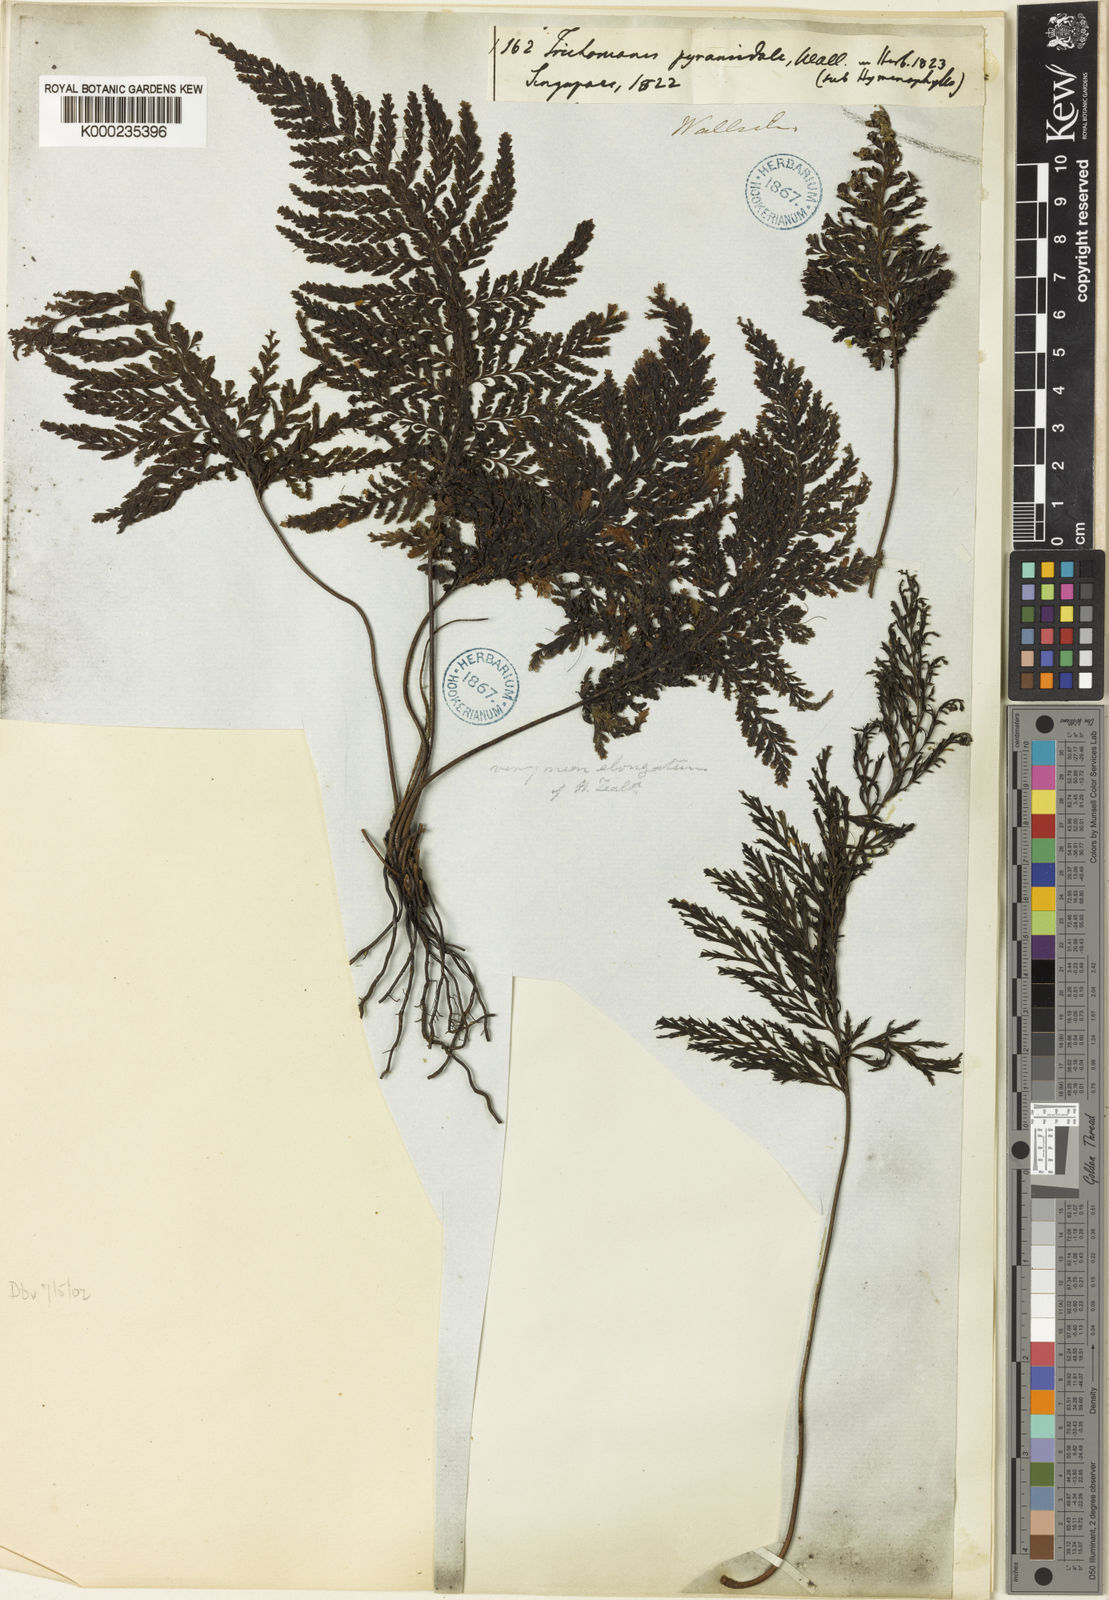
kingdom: Plantae
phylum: Tracheophyta
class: Polypodiopsida
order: Hymenophyllales
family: Hymenophyllaceae
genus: Abrodictyum
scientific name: Abrodictyum obscurum
